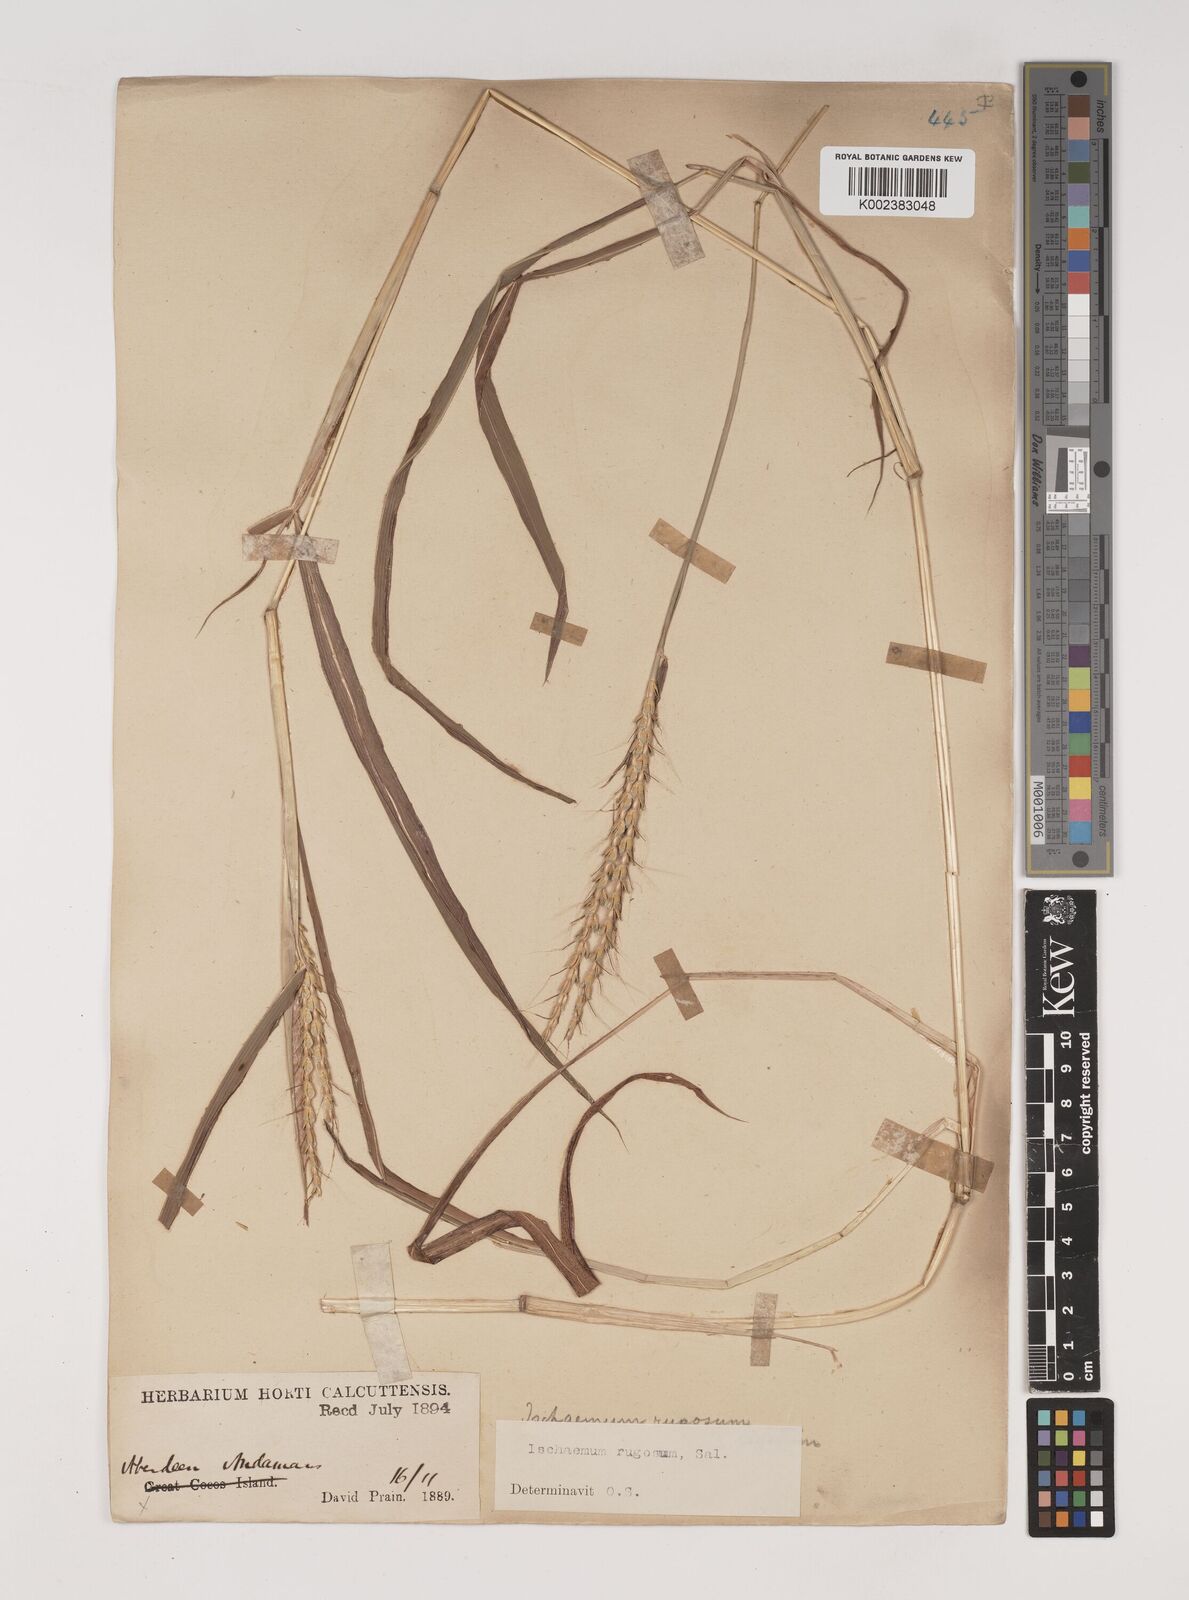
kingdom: Plantae
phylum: Tracheophyta
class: Liliopsida
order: Poales
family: Poaceae
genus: Ischaemum
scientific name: Ischaemum rugosum
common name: Saramatta grass
